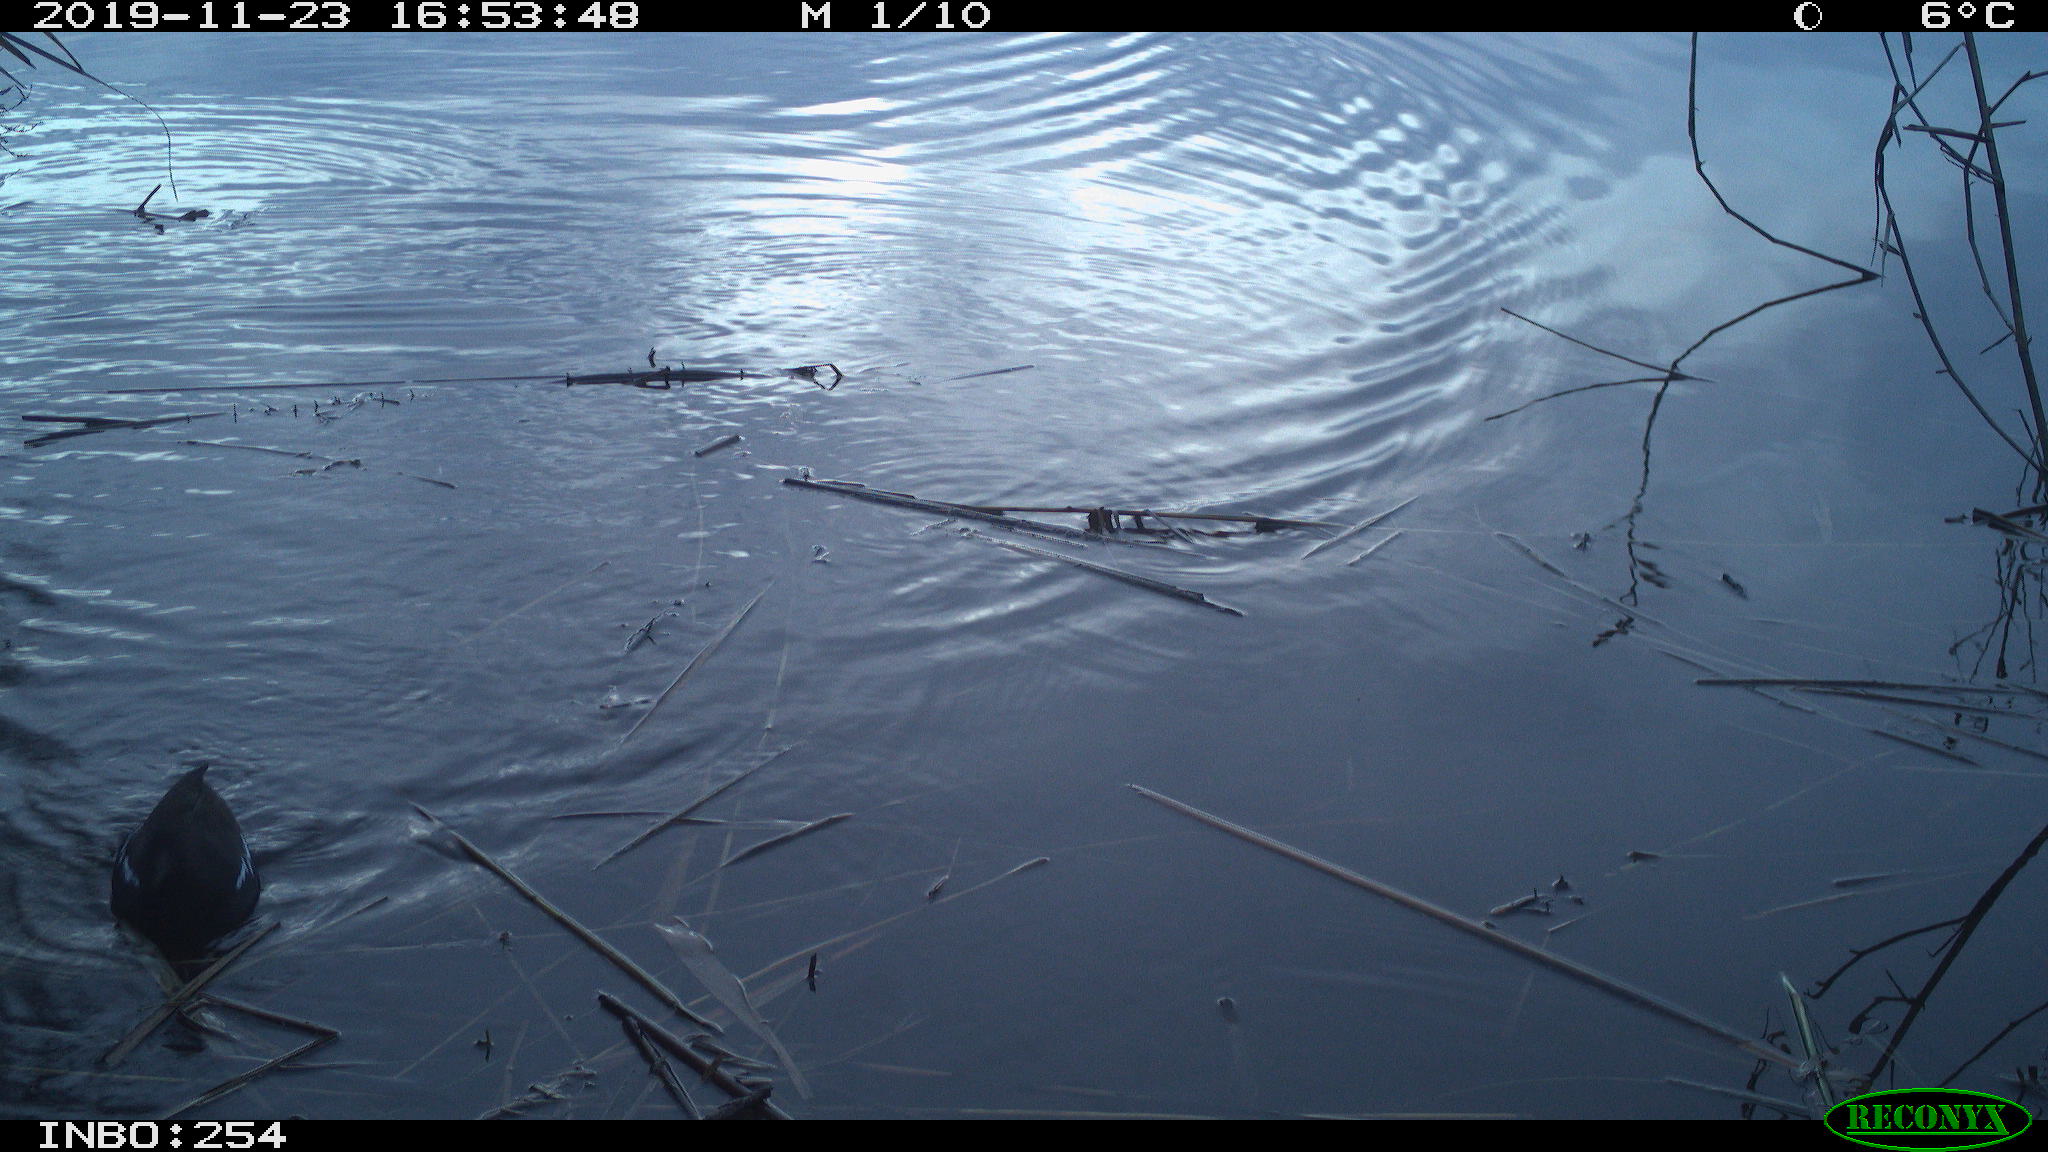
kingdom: Animalia
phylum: Chordata
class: Aves
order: Gruiformes
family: Rallidae
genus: Gallinula
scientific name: Gallinula chloropus
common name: Common moorhen
